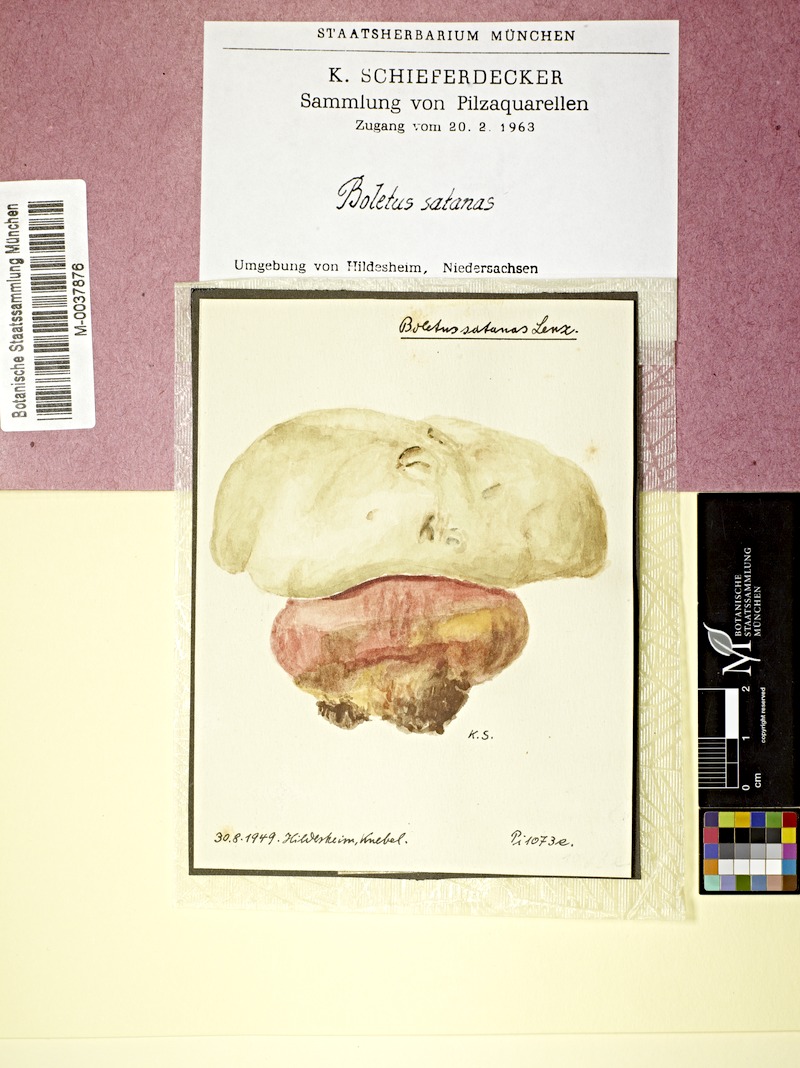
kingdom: Fungi
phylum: Basidiomycota
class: Agaricomycetes
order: Boletales
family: Boletaceae
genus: Rubroboletus
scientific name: Rubroboletus satanas
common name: Devil's bolete
